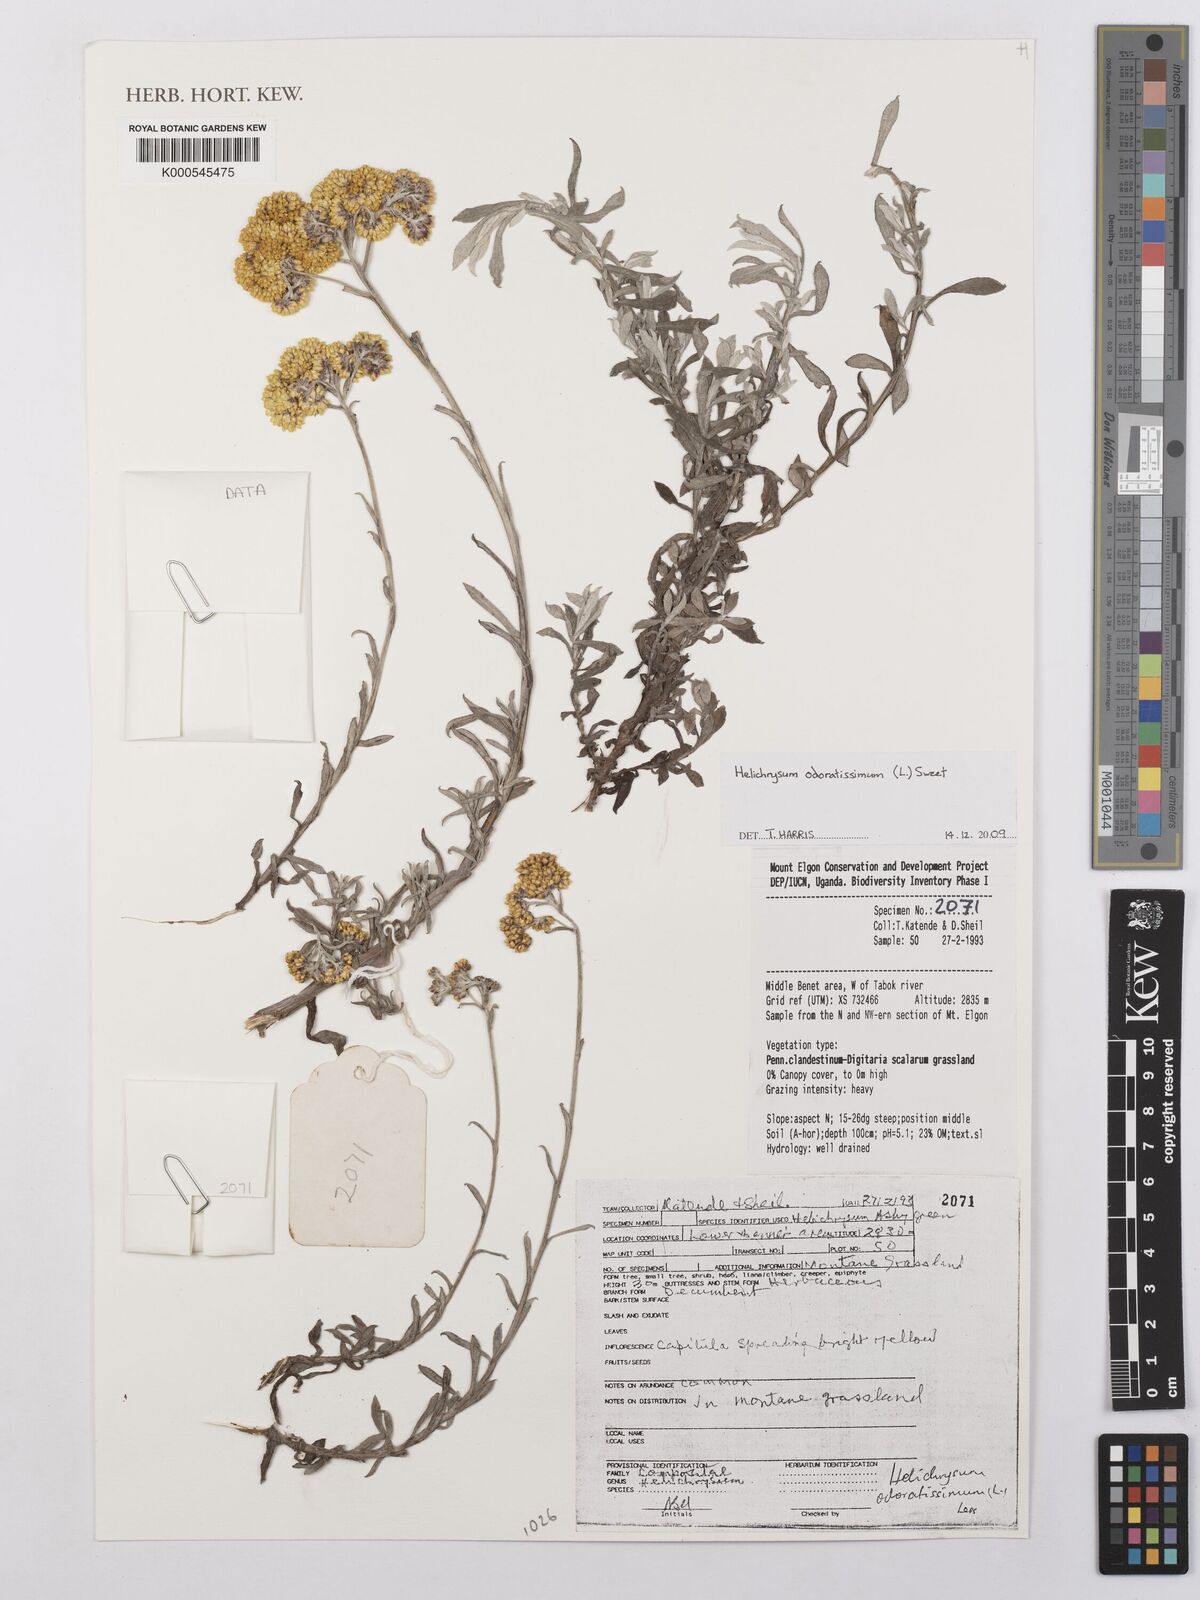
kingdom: Plantae
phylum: Tracheophyta
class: Magnoliopsida
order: Asterales
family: Asteraceae
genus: Helichrysum
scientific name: Helichrysum odoratissimum
